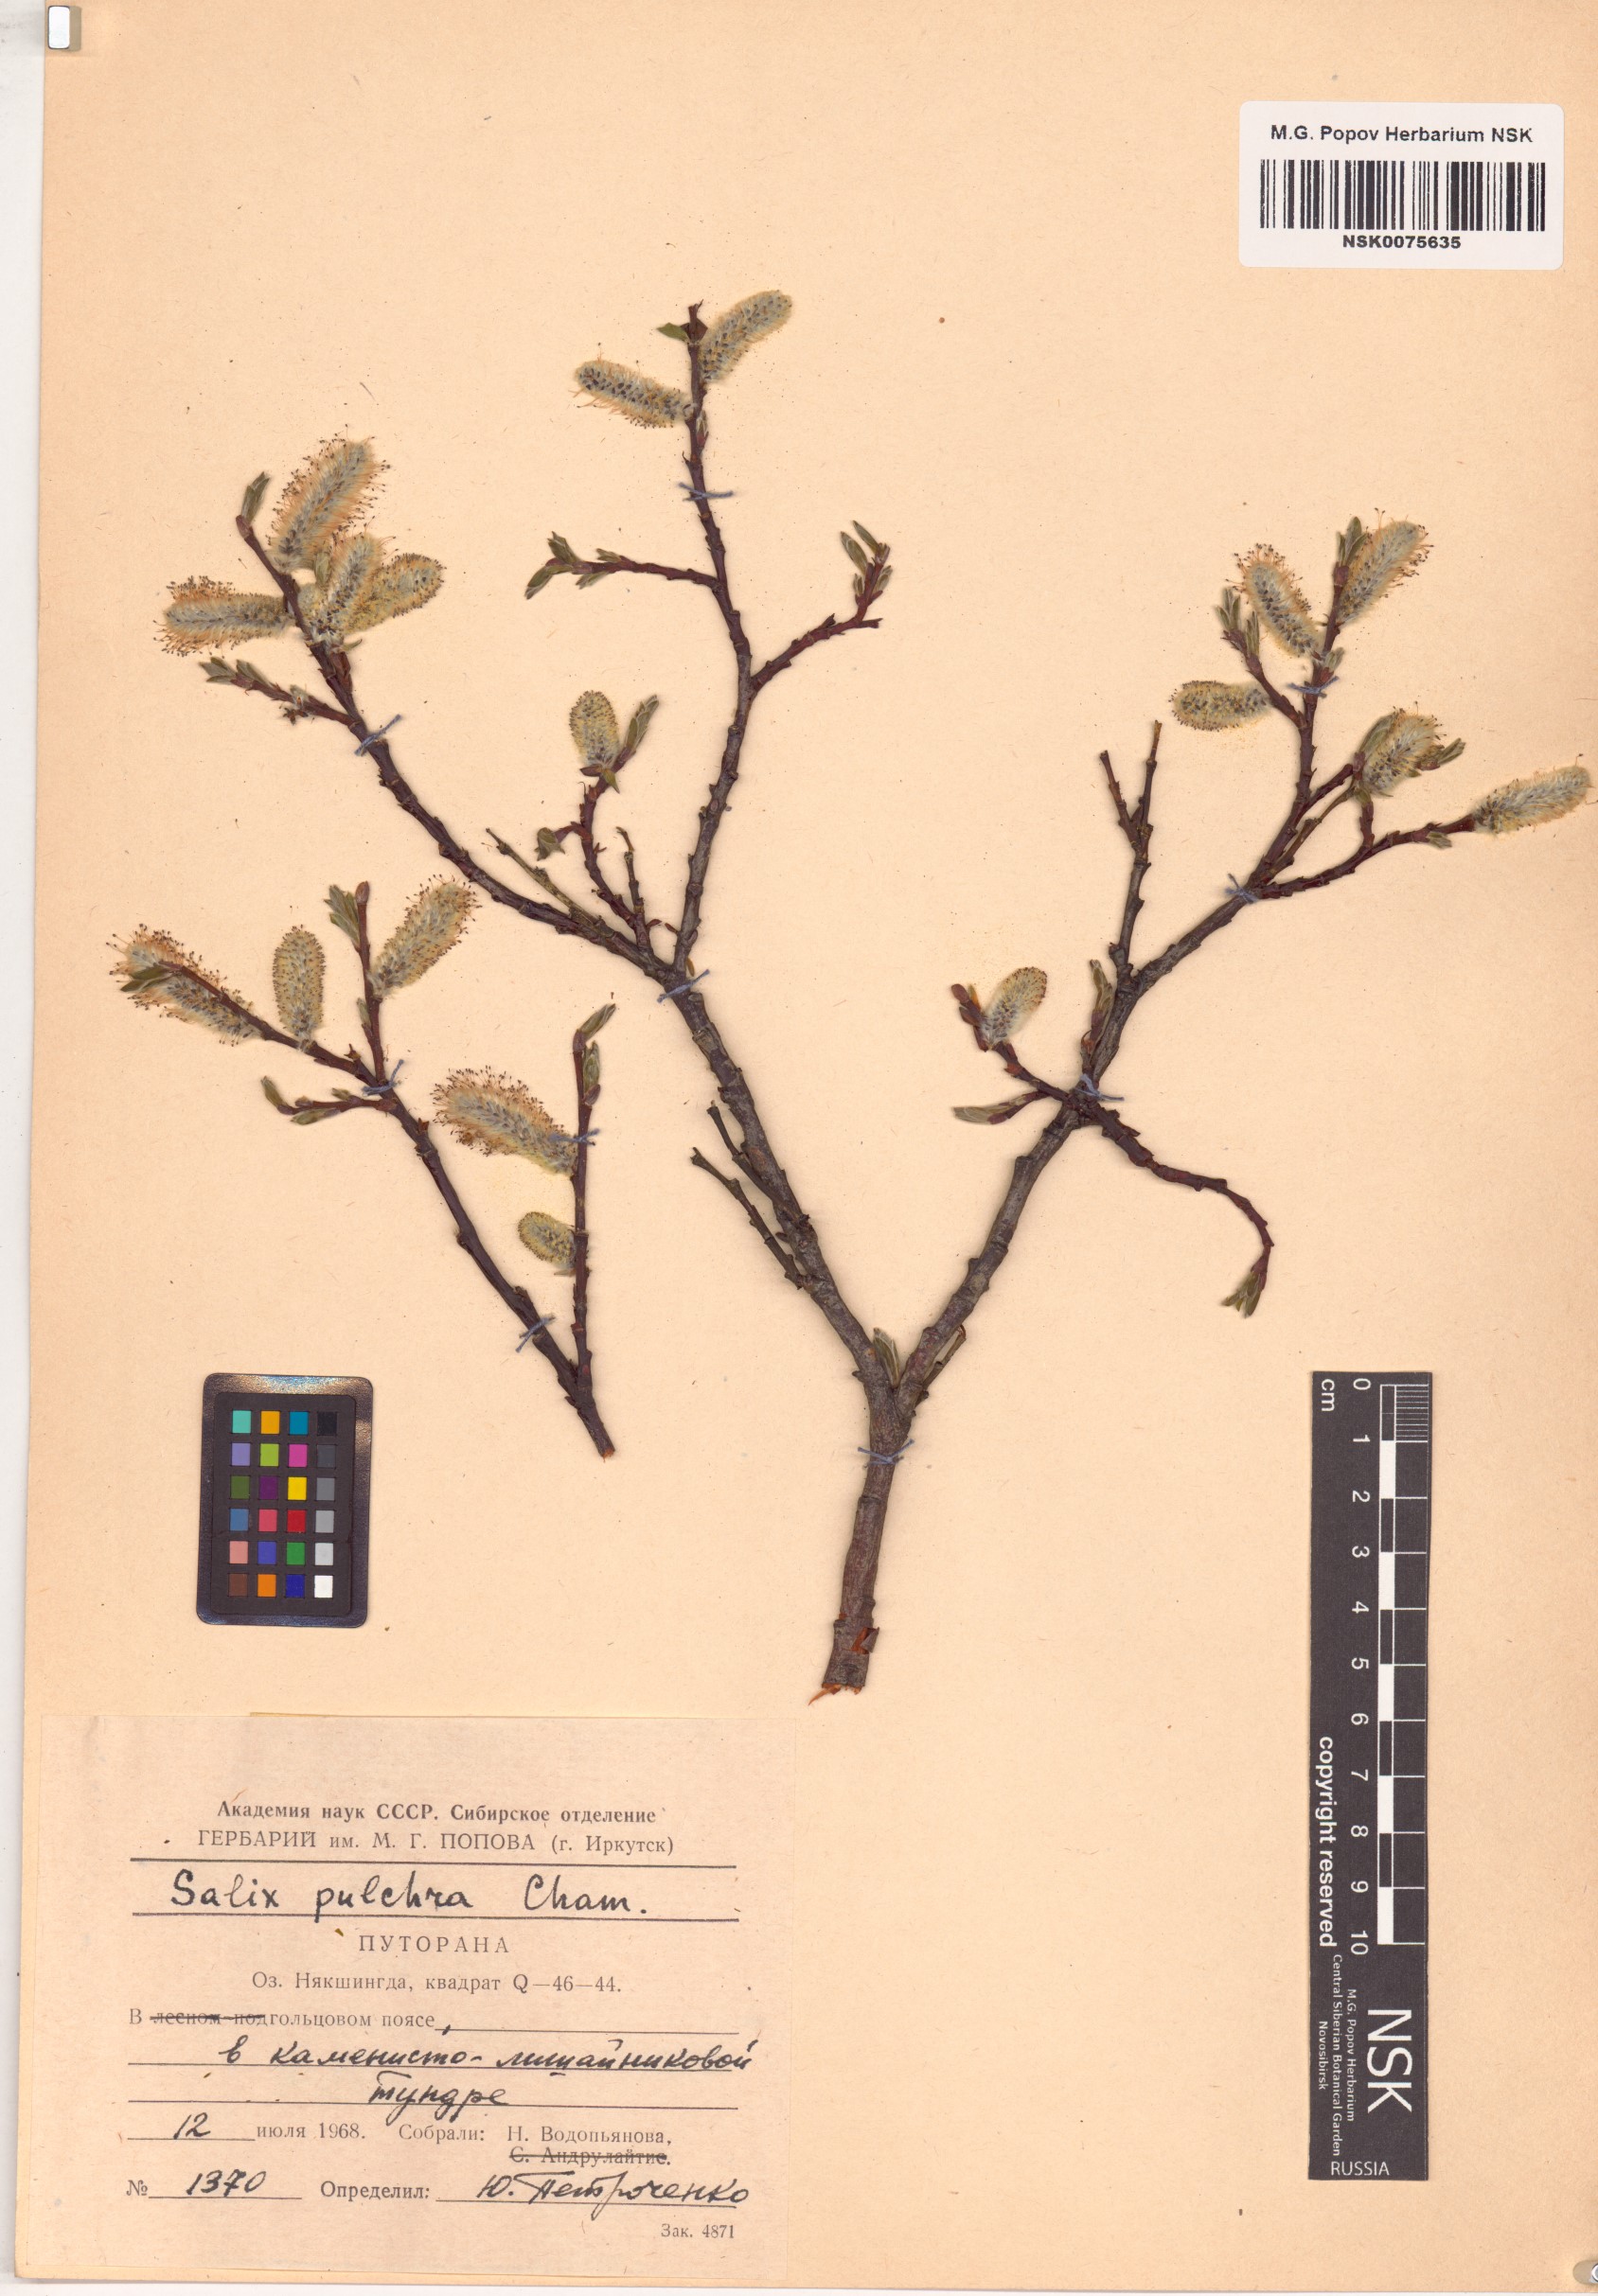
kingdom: Plantae
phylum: Tracheophyta
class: Magnoliopsida
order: Malpighiales
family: Salicaceae
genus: Salix
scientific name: Salix pulchra
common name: Diamond-leaved willow
